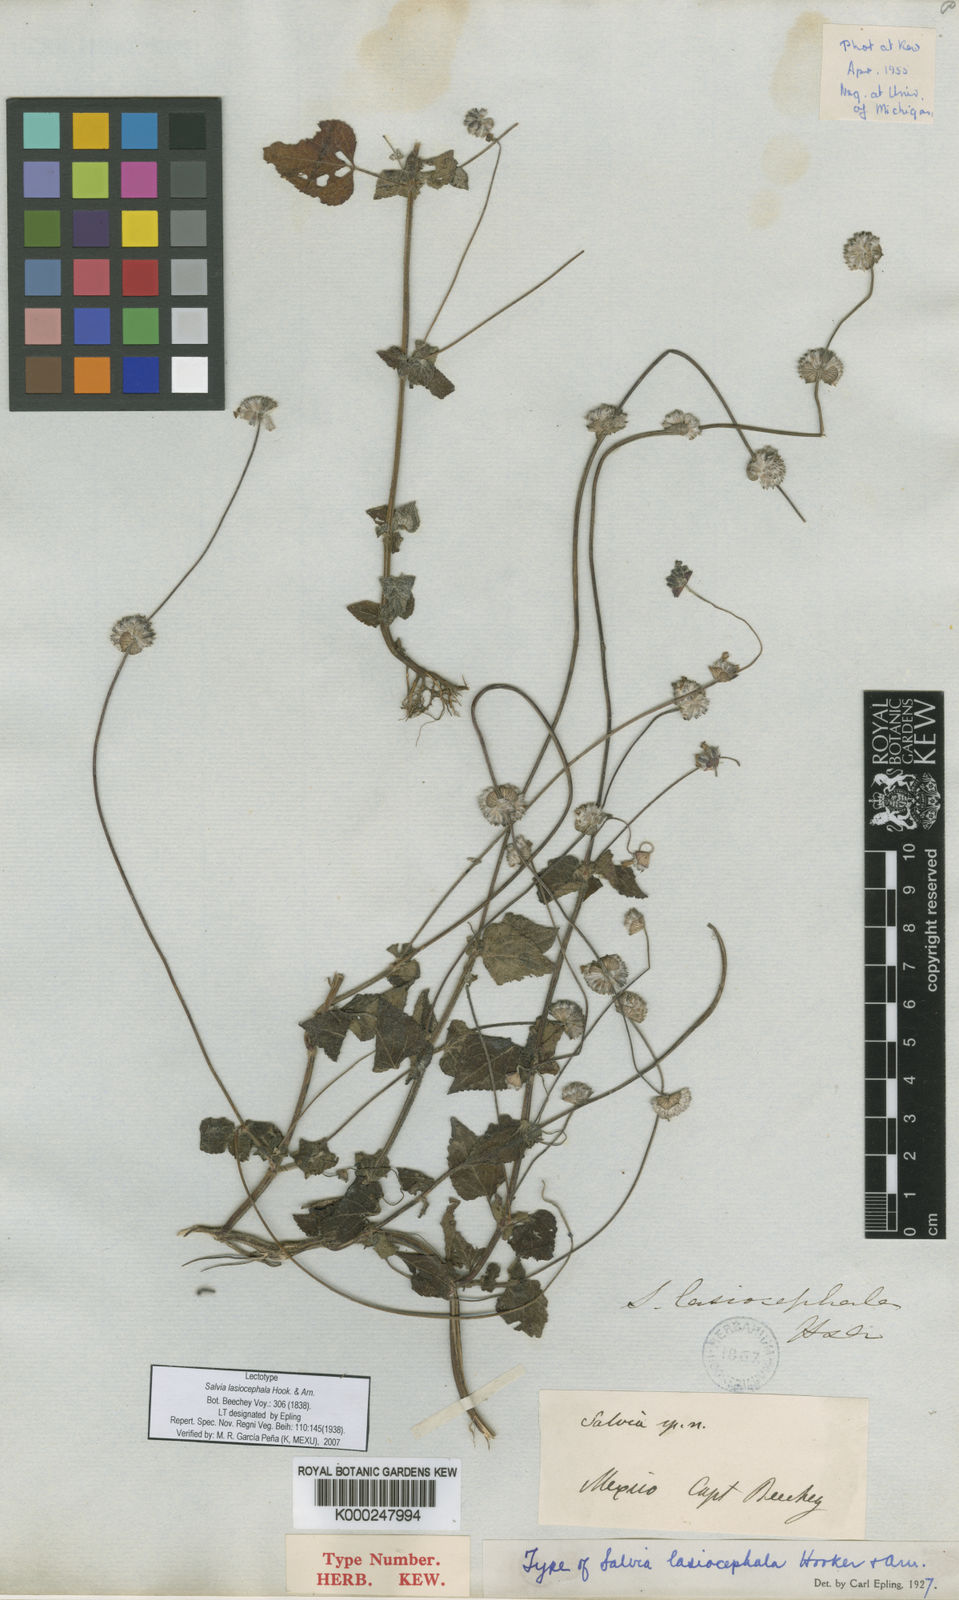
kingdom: Plantae
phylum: Tracheophyta
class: Magnoliopsida
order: Lamiales
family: Lamiaceae
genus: Salvia
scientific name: Salvia lasiocephala
